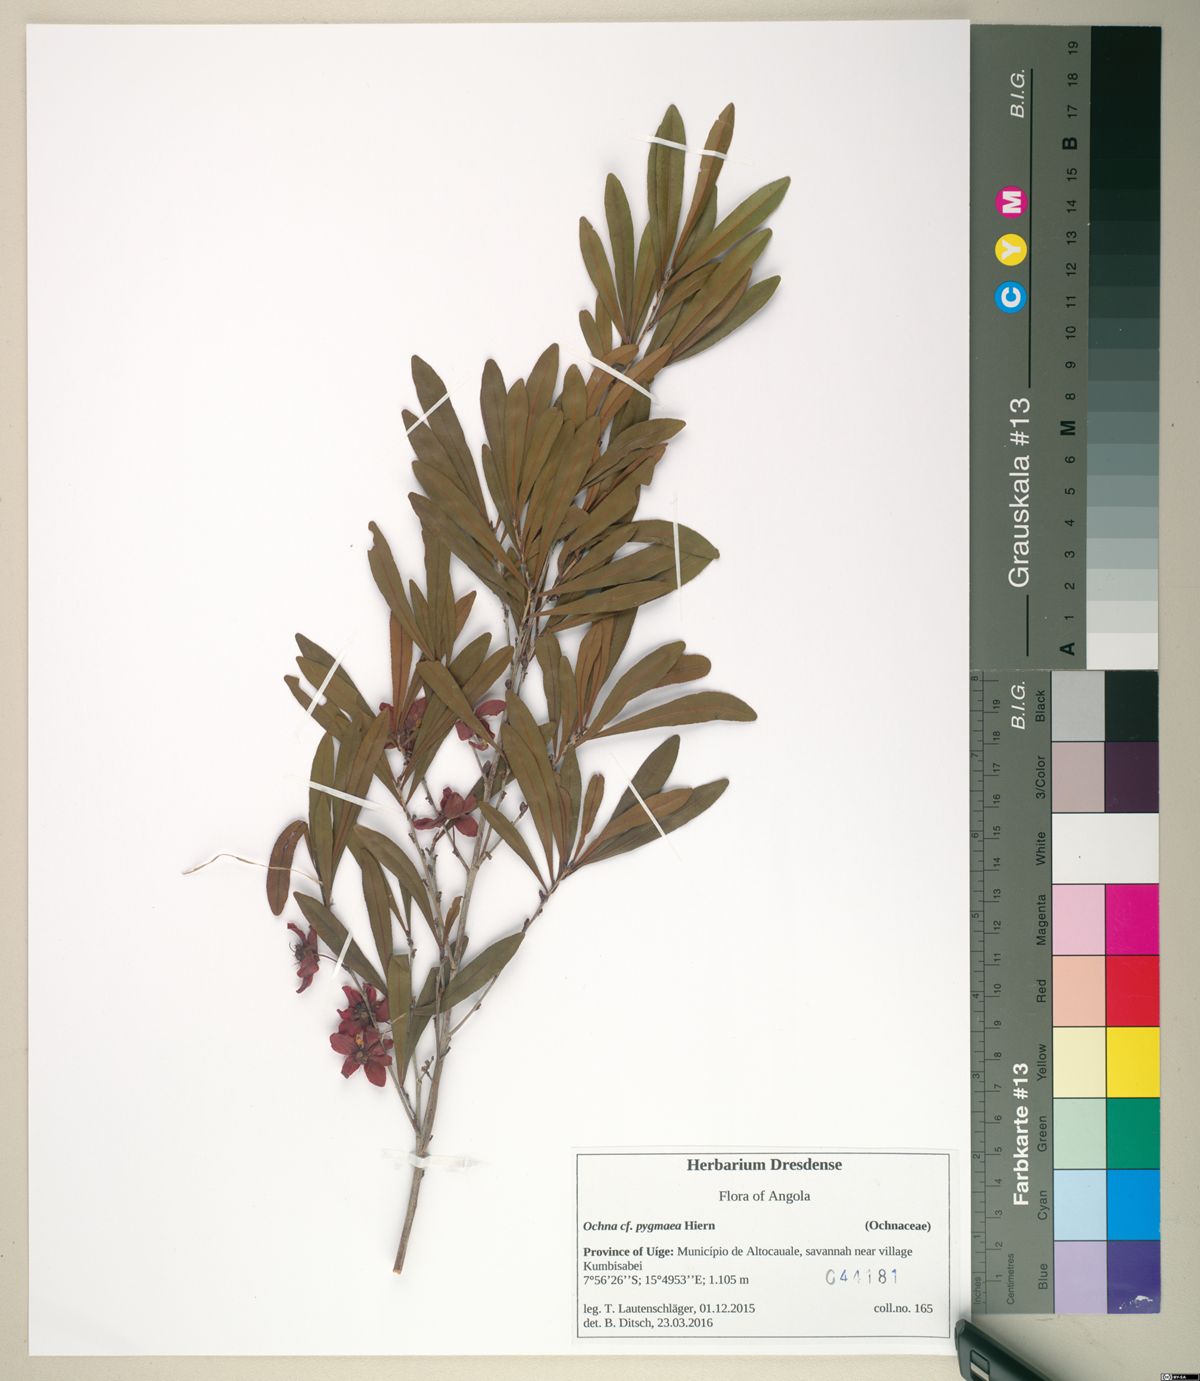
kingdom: Plantae
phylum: Tracheophyta
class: Magnoliopsida
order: Malpighiales
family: Ochnaceae
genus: Ochna
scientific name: Ochna pygmaea
